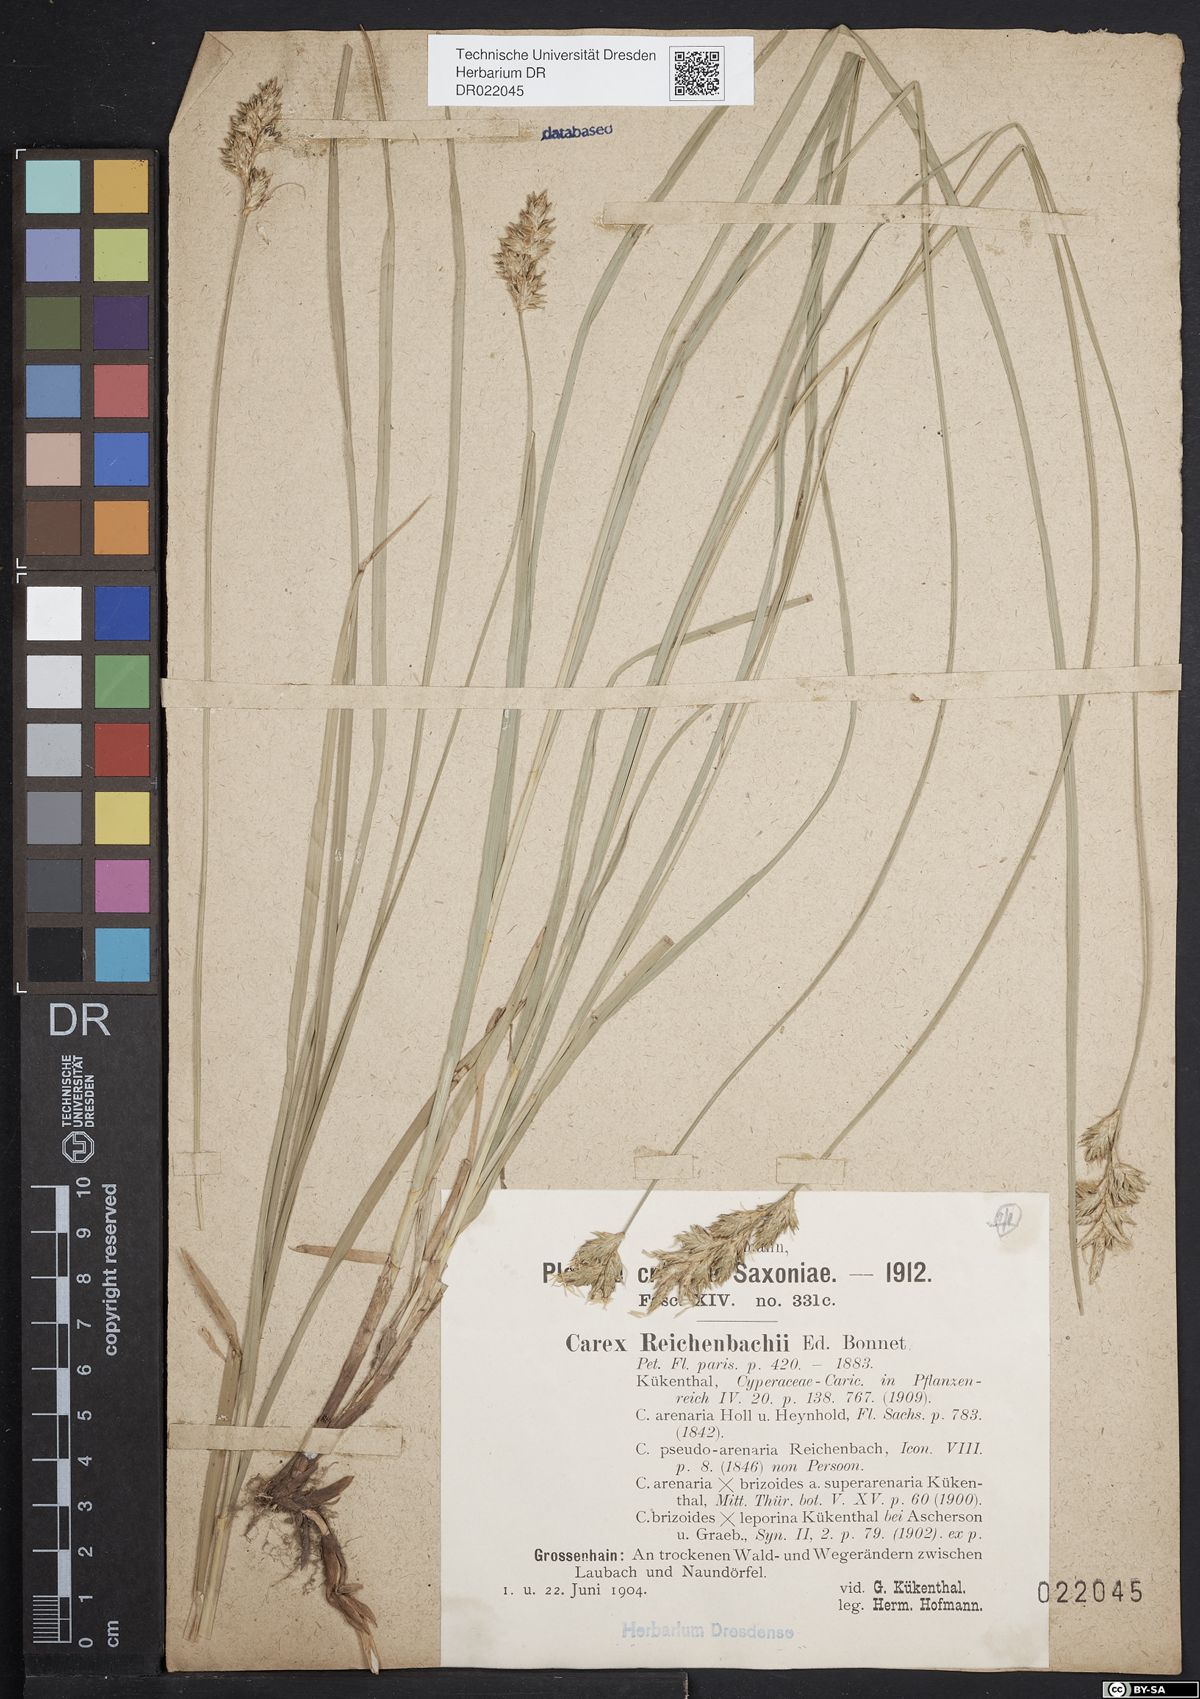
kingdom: Plantae
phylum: Tracheophyta
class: Liliopsida
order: Poales
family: Cyperaceae
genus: Carex
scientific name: Carex pseudobrizoides
